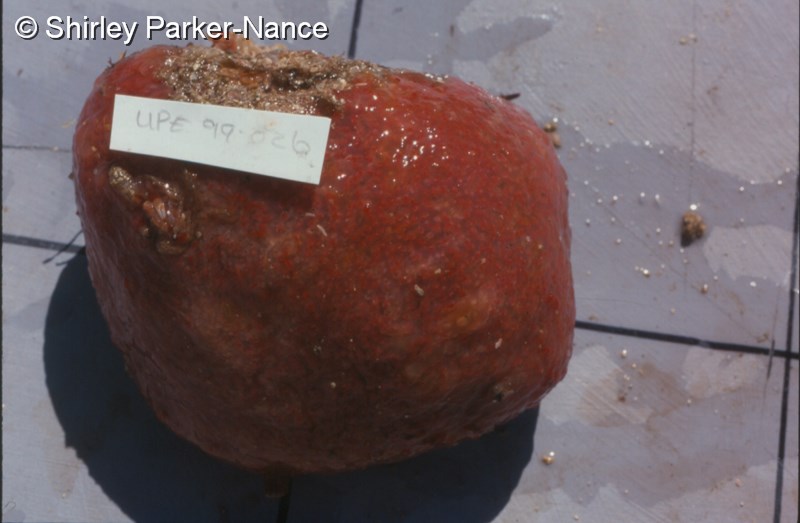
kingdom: Animalia
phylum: Chordata
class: Ascidiacea
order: Aplousobranchia
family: Polyclinidae
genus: Aplidium
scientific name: Aplidium flavolineatum
